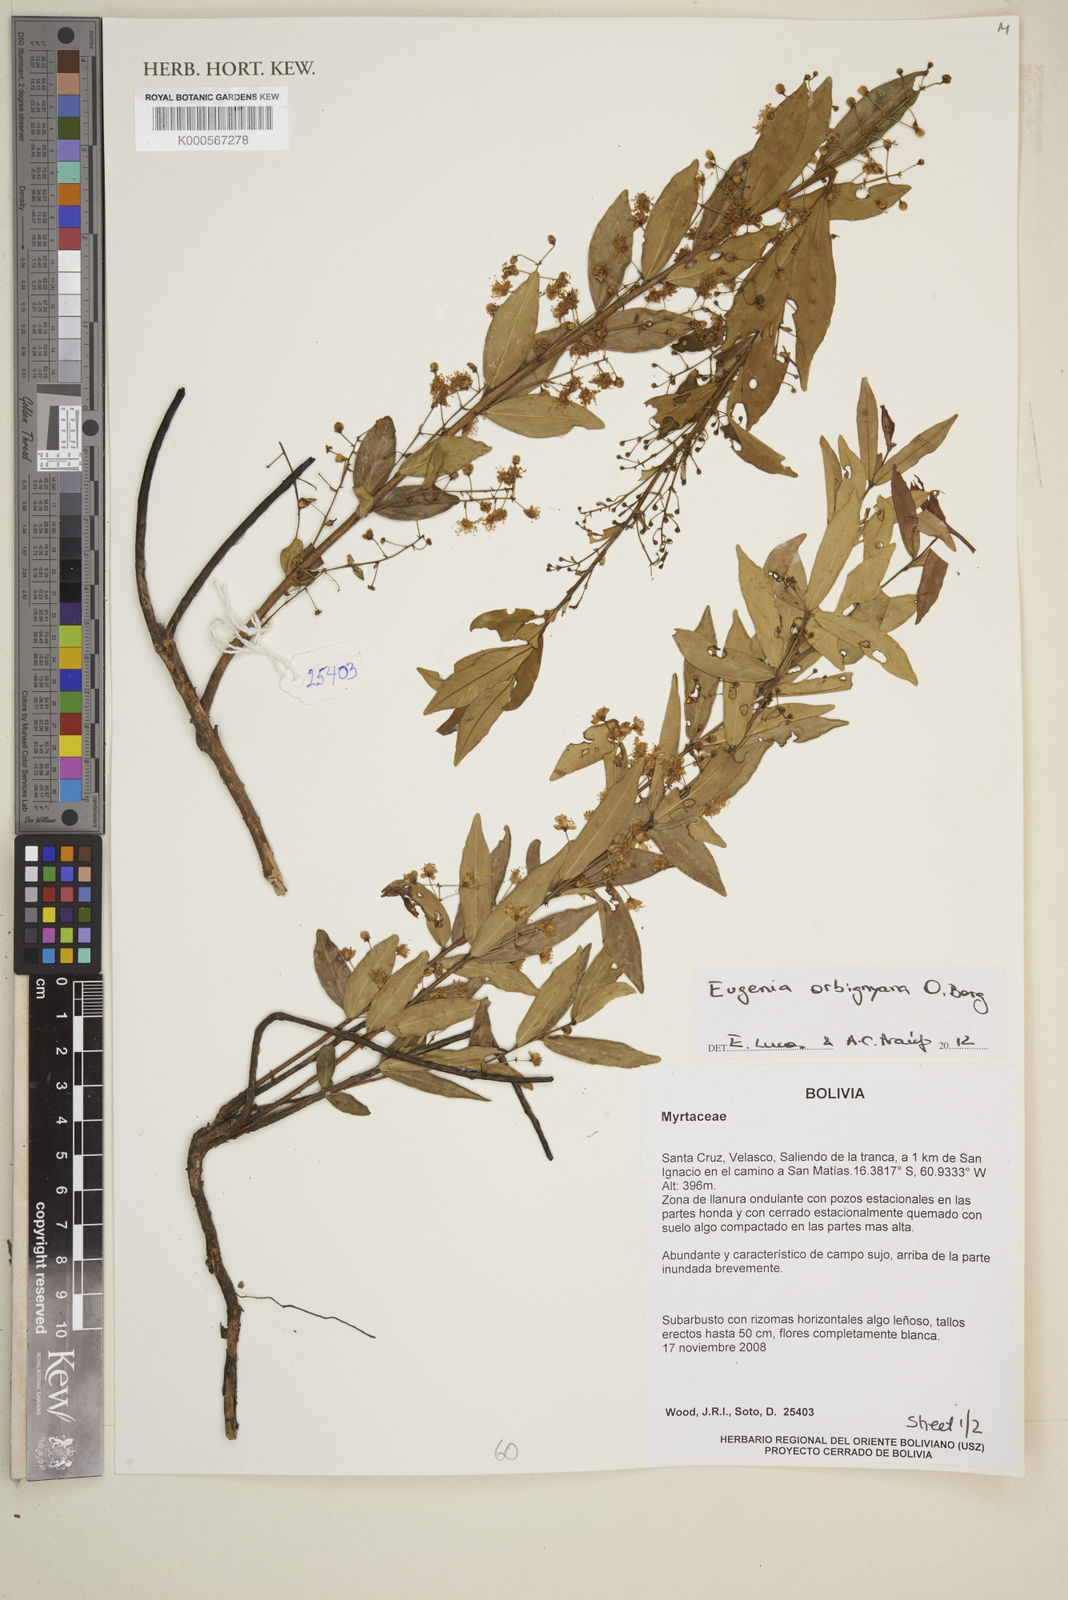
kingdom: Plantae
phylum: Tracheophyta
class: Magnoliopsida
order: Myrtales
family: Myrtaceae
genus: Eugenia
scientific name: Eugenia orbignyana
